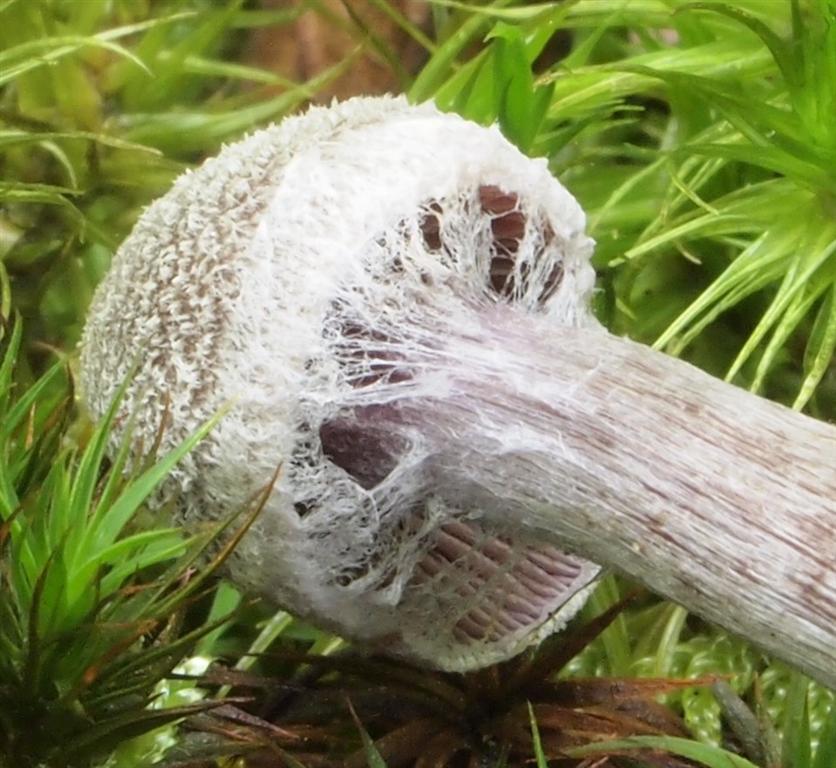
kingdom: Fungi
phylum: Basidiomycota
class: Agaricomycetes
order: Agaricales
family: Cortinariaceae
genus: Cortinarius
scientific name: Cortinarius
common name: pelargonie-slørhat
